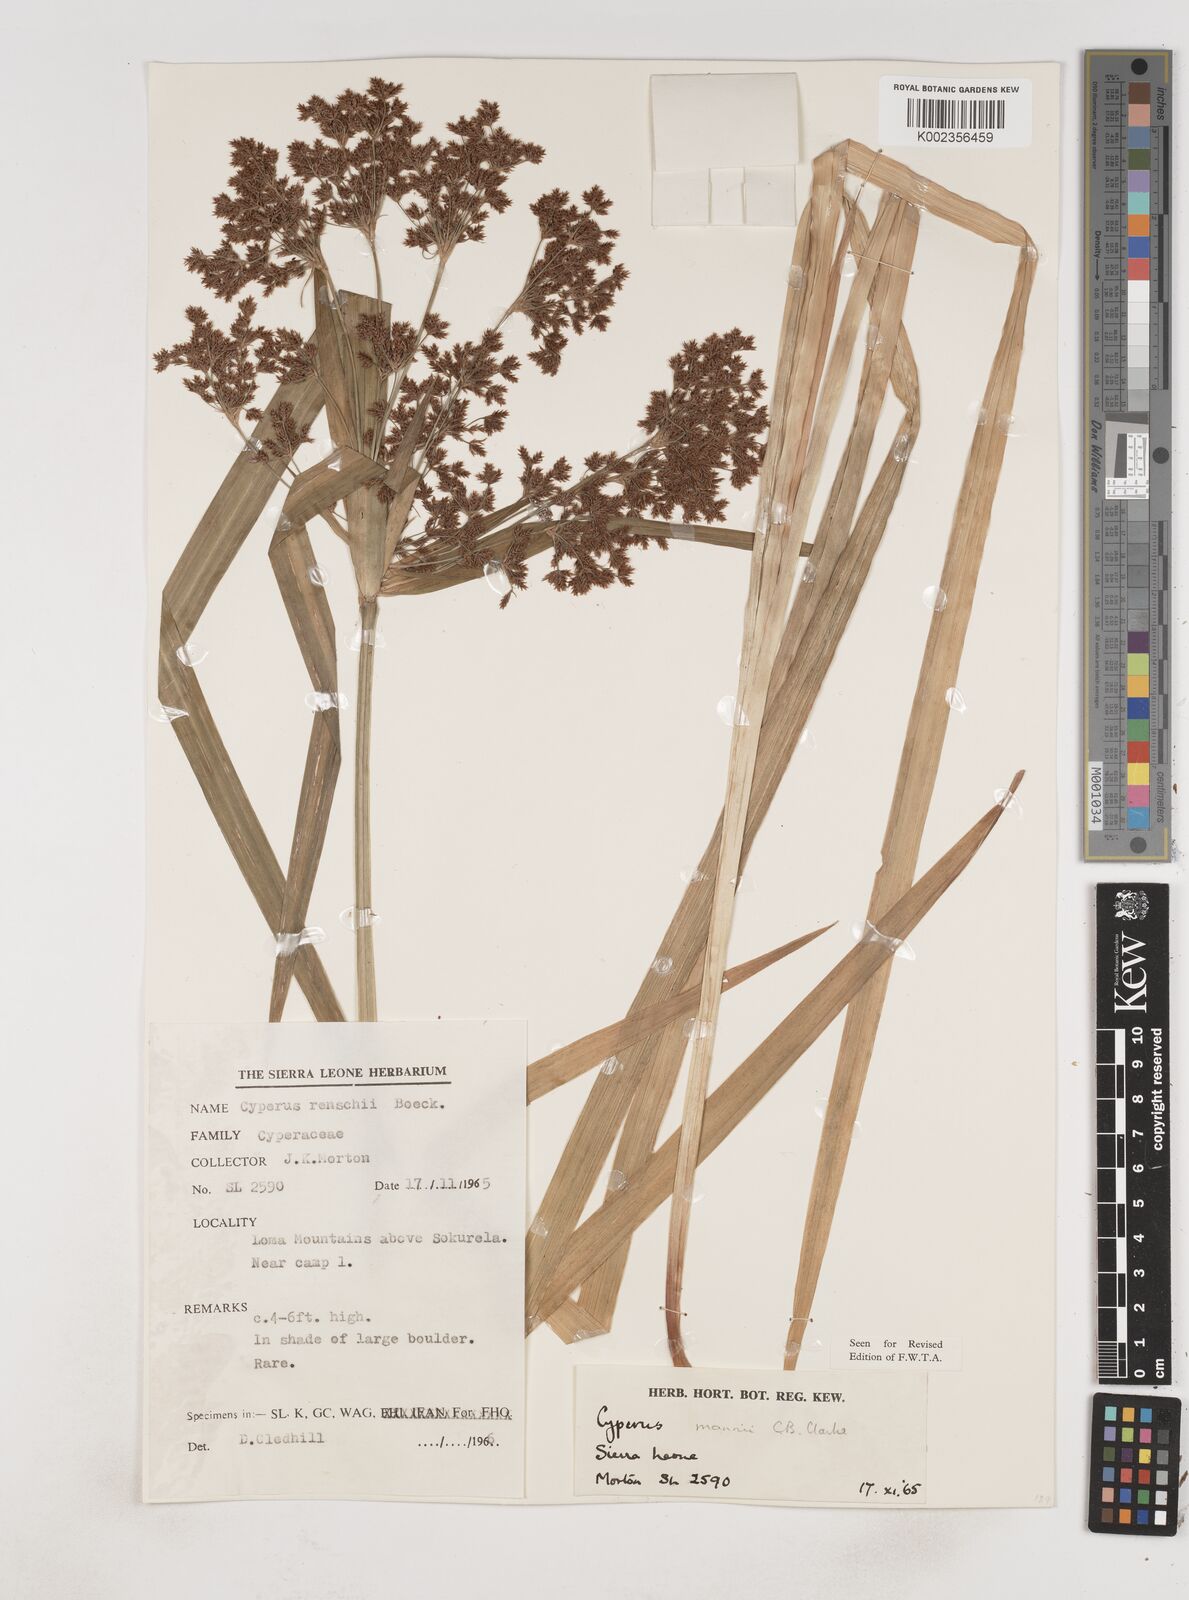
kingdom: Plantae
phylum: Tracheophyta
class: Liliopsida
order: Poales
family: Cyperaceae
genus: Cyperus
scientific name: Cyperus baronii
